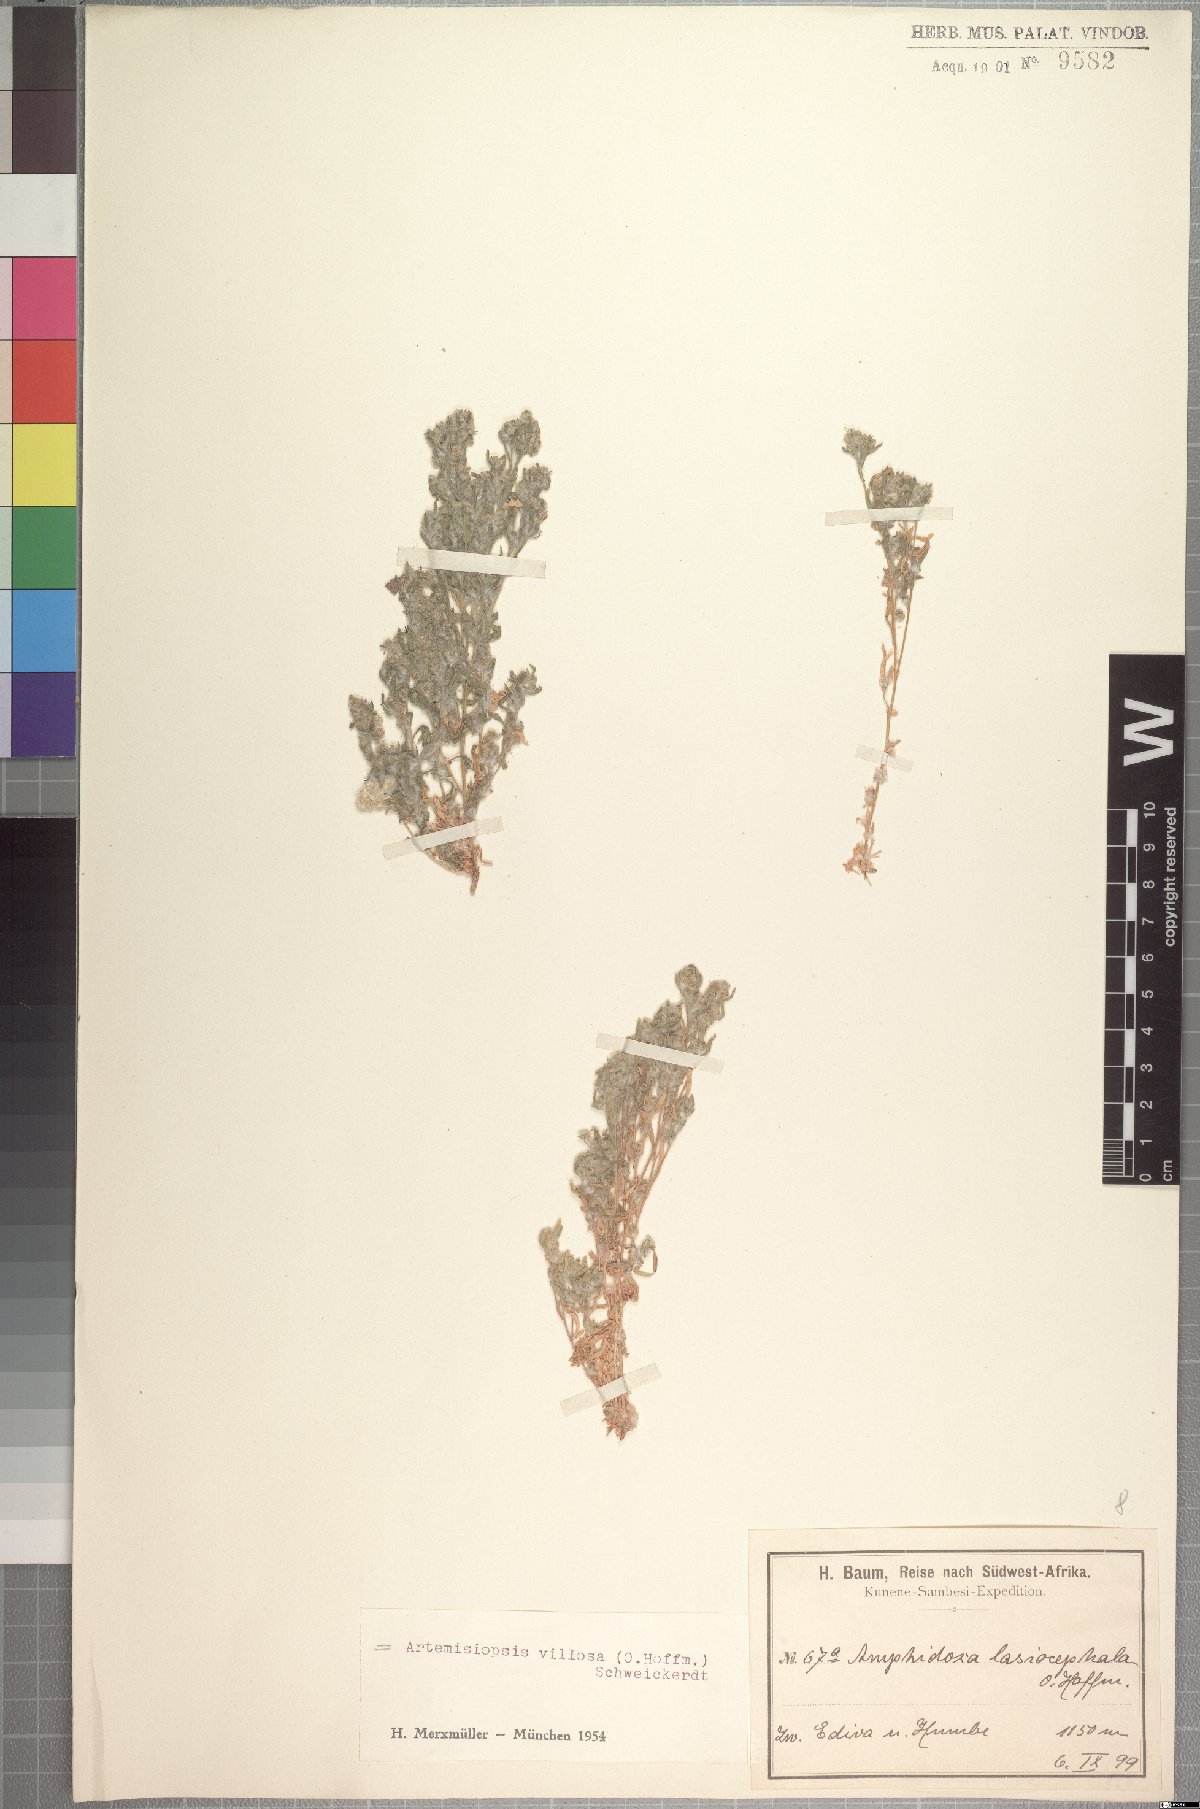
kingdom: Plantae
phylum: Tracheophyta
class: Magnoliopsida
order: Asterales
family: Asteraceae
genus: Artemisiopsis
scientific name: Artemisiopsis villosa
